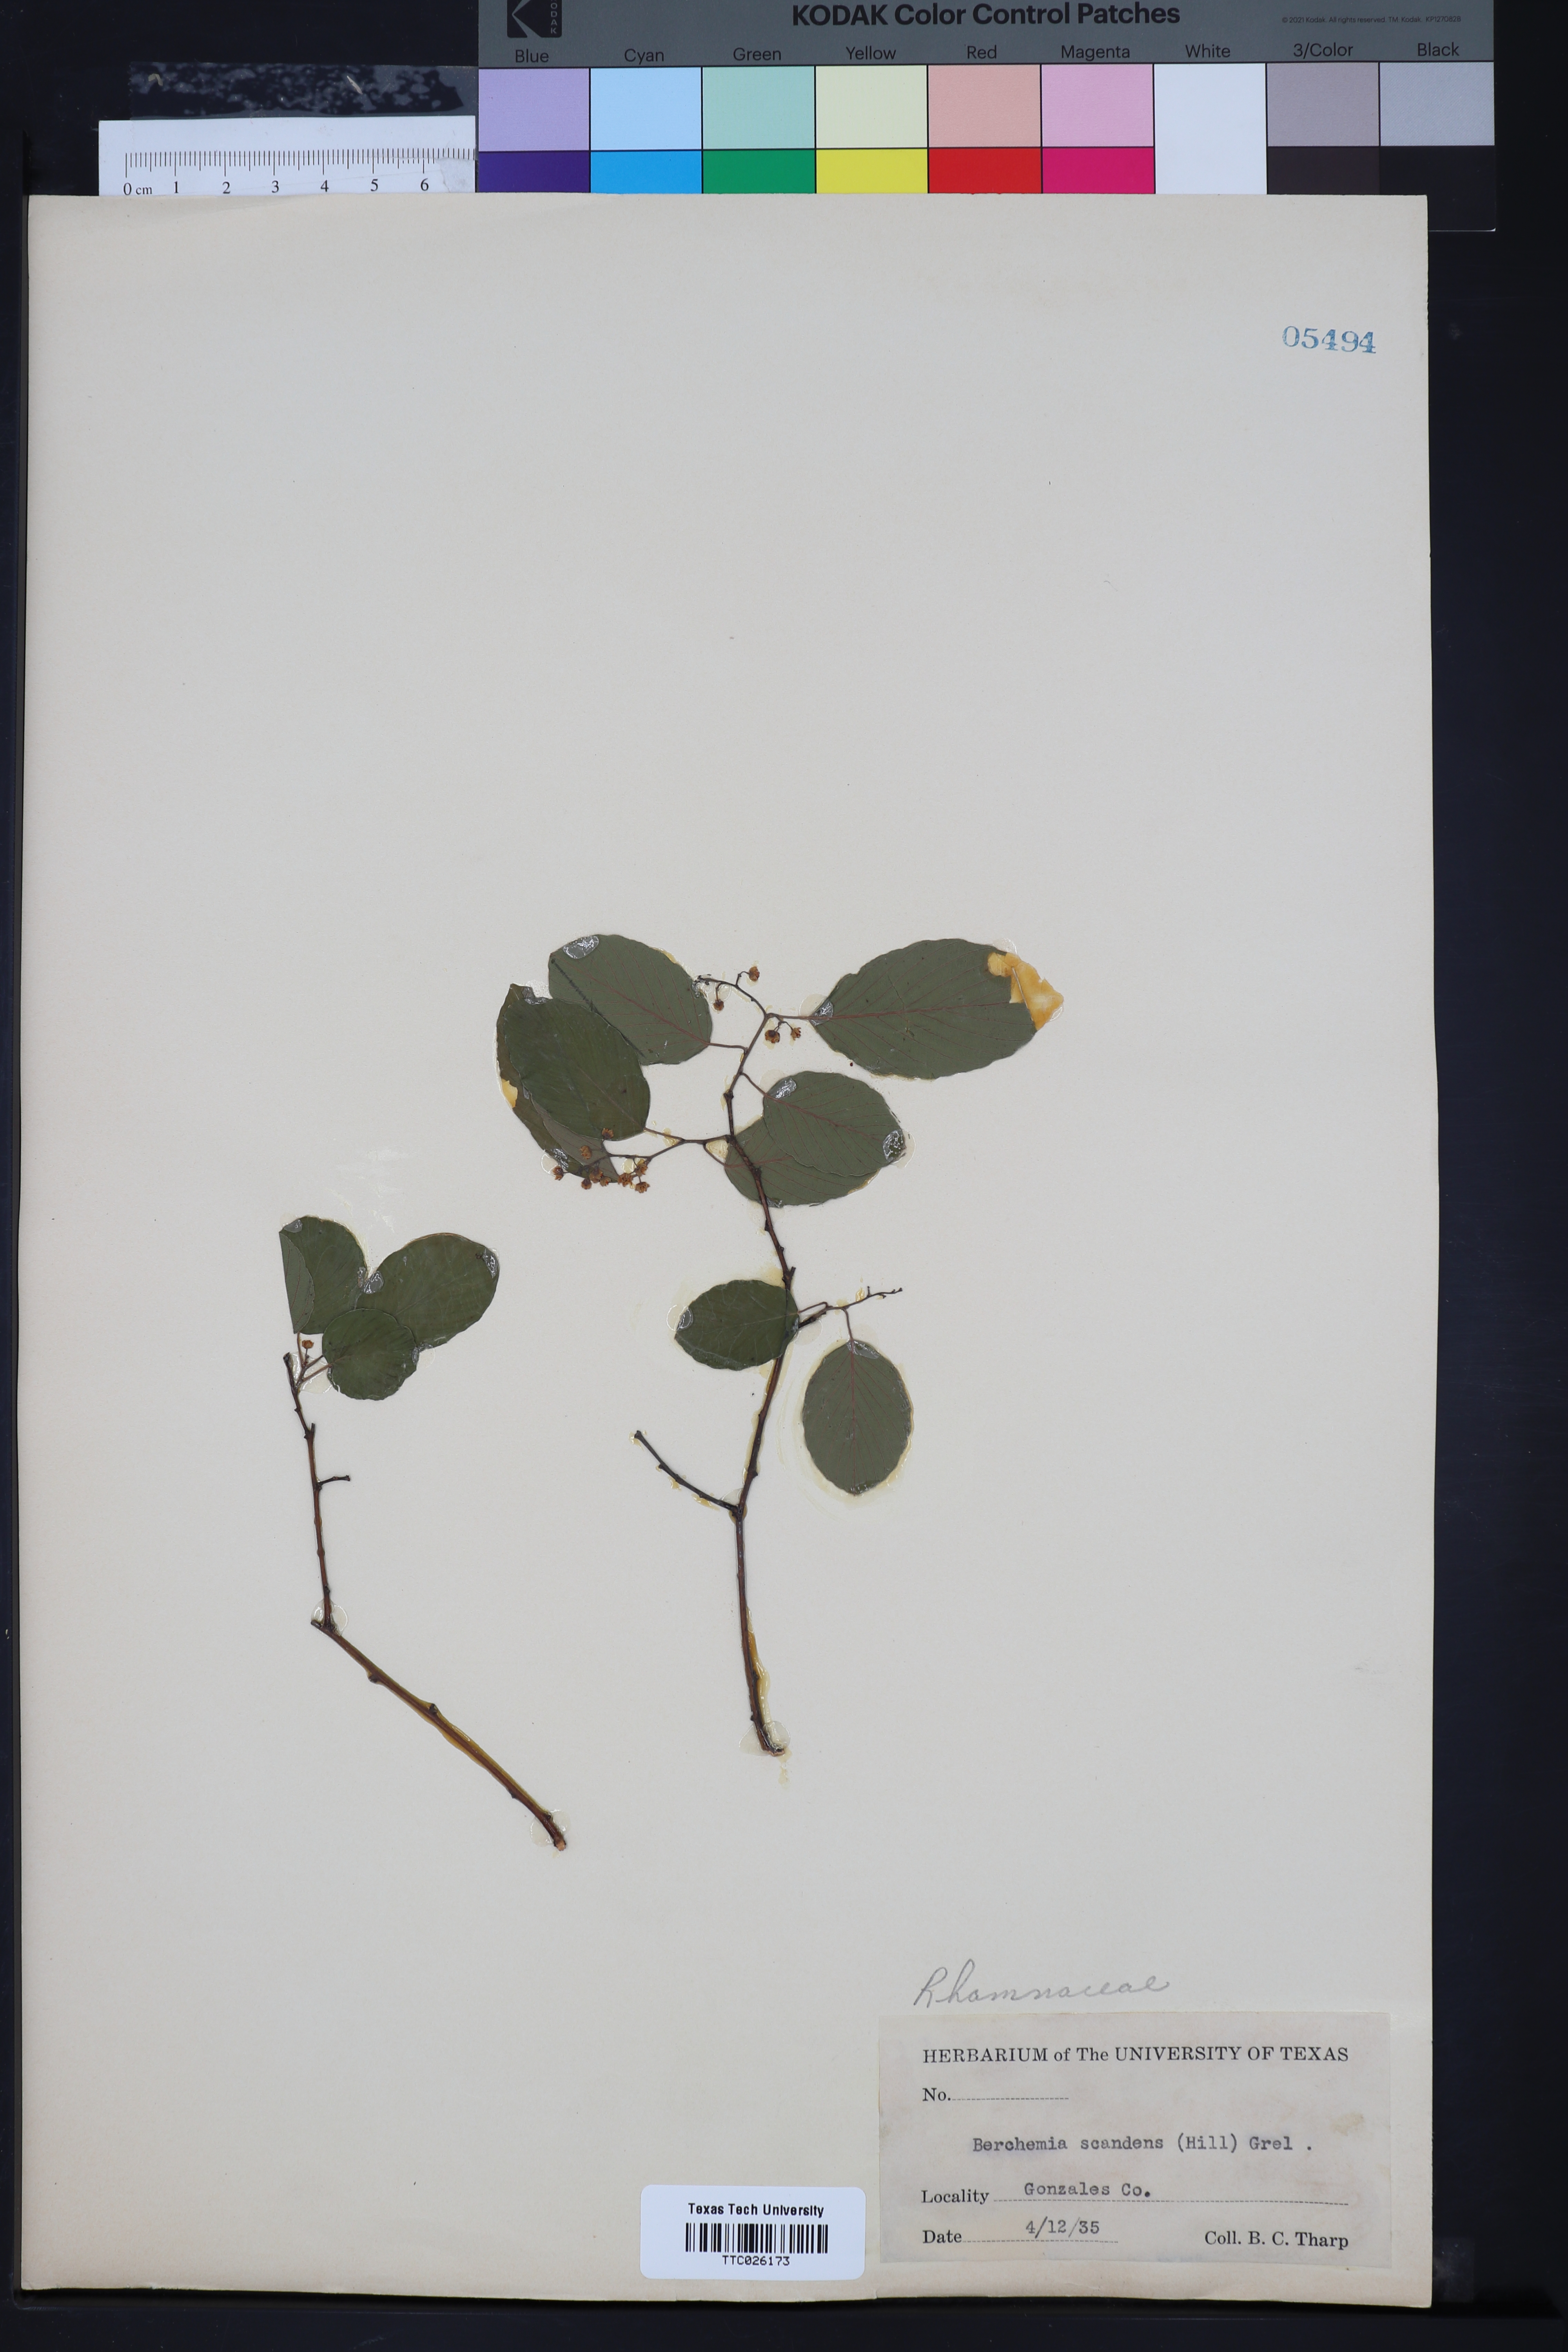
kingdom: Plantae
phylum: Tracheophyta
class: Magnoliopsida
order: Rosales
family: Rhamnaceae
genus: Berchemia
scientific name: Berchemia scandens
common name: Supplejack
